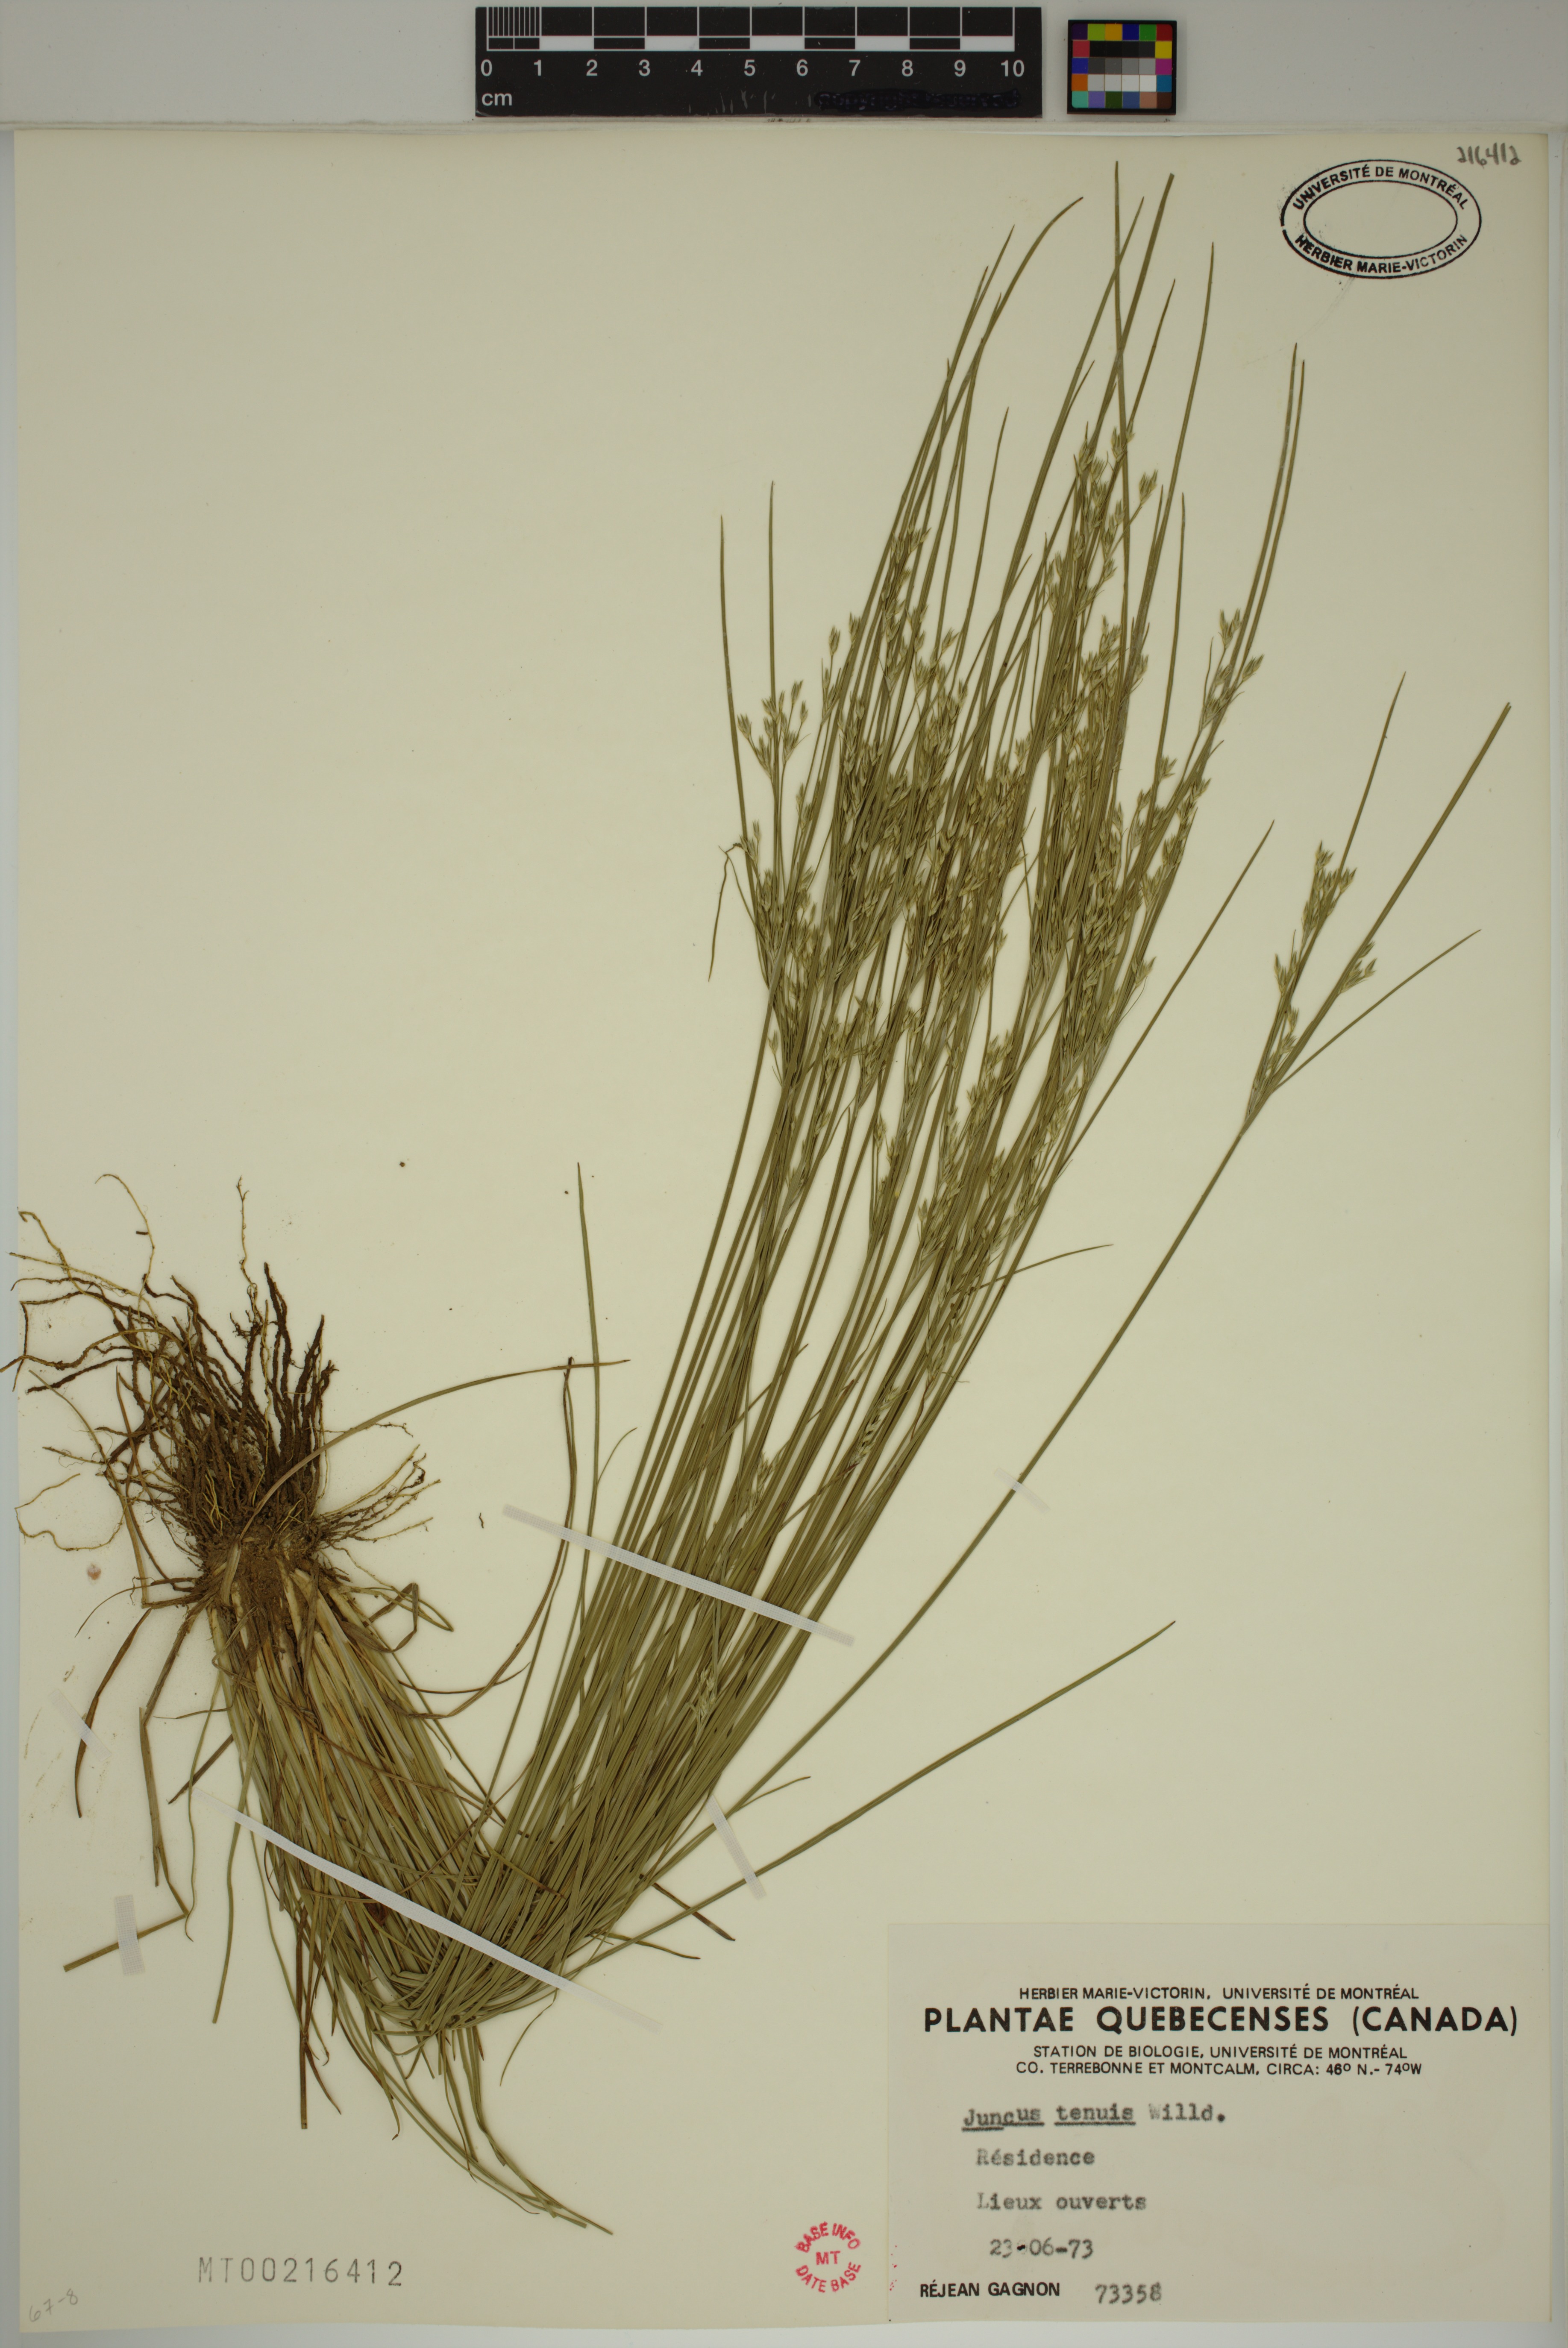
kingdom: Plantae
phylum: Tracheophyta
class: Liliopsida
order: Poales
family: Juncaceae
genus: Juncus
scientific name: Juncus tenuis
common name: Slender rush
